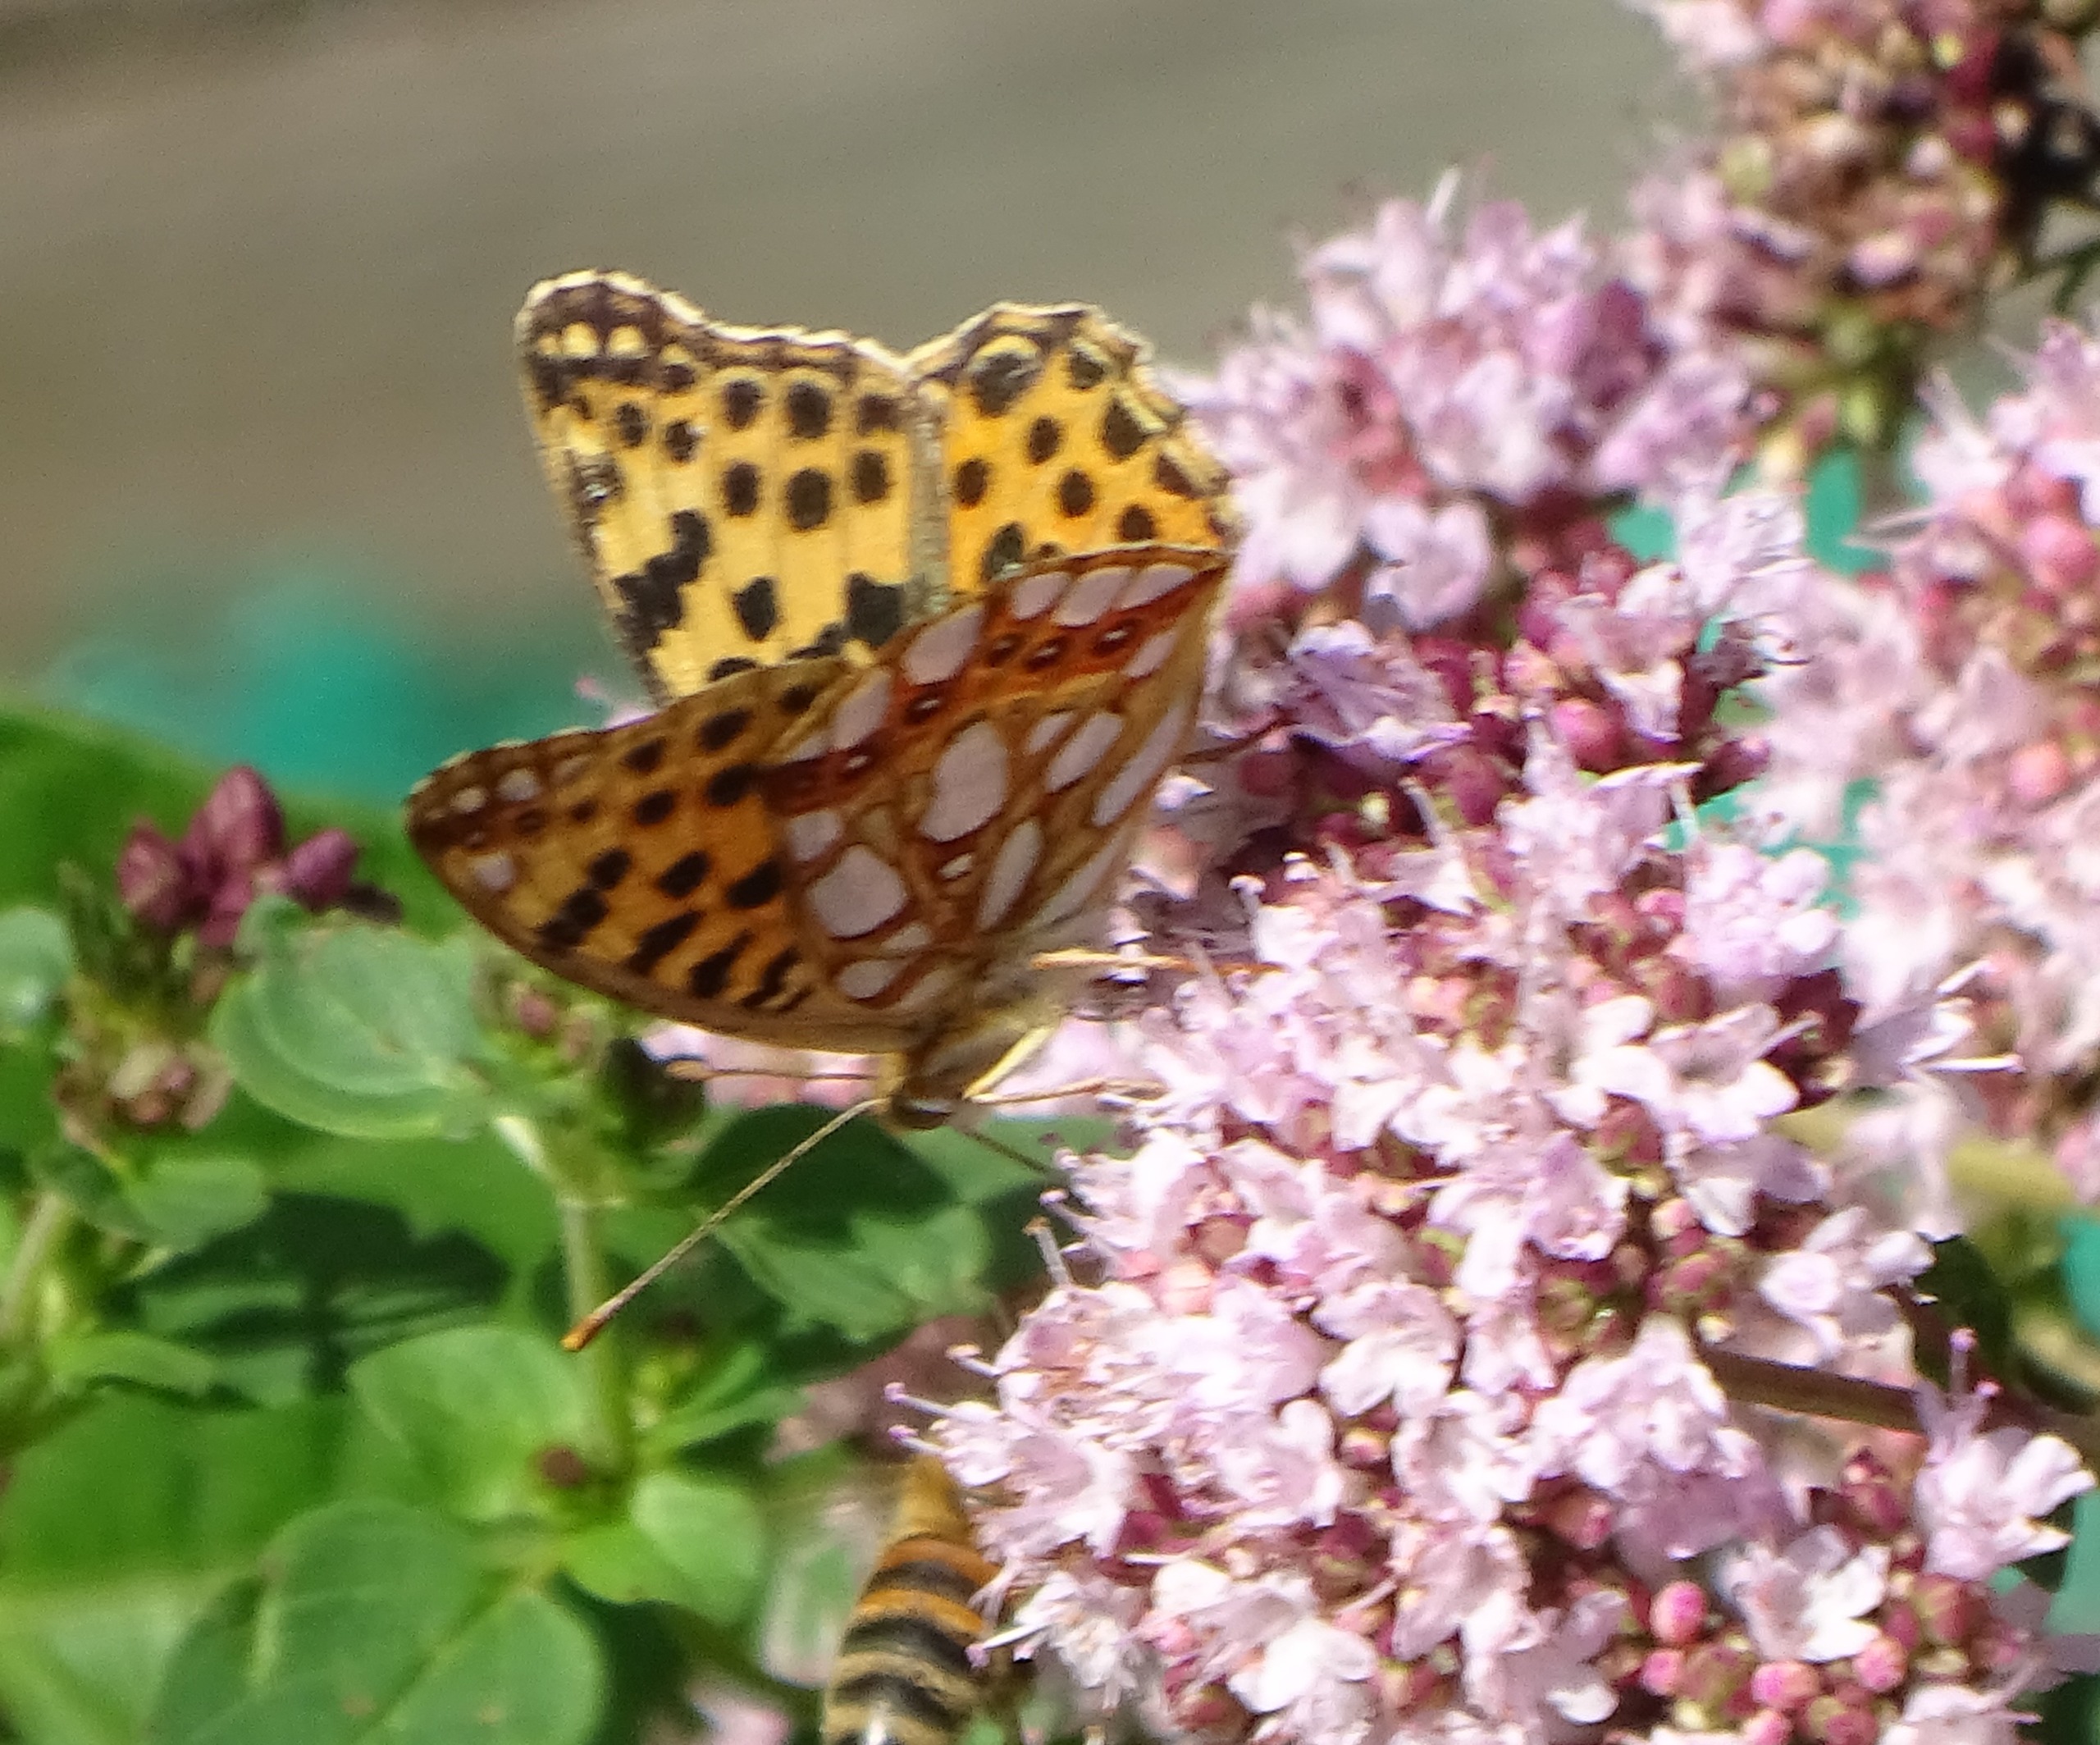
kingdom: Animalia
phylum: Arthropoda
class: Insecta
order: Lepidoptera
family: Nymphalidae
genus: Issoria
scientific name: Issoria lathonia
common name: Storplettet perlemorsommerfugl
